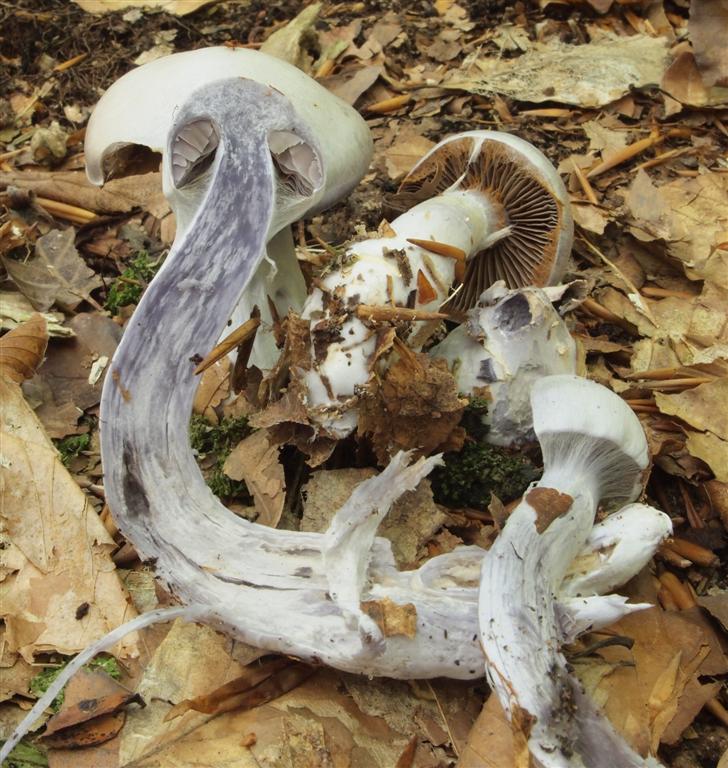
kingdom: Fungi
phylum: Basidiomycota
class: Agaricomycetes
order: Agaricales
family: Cortinariaceae
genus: Cortinarius
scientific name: Cortinarius alboviolaceus
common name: lysviolet slørhat
